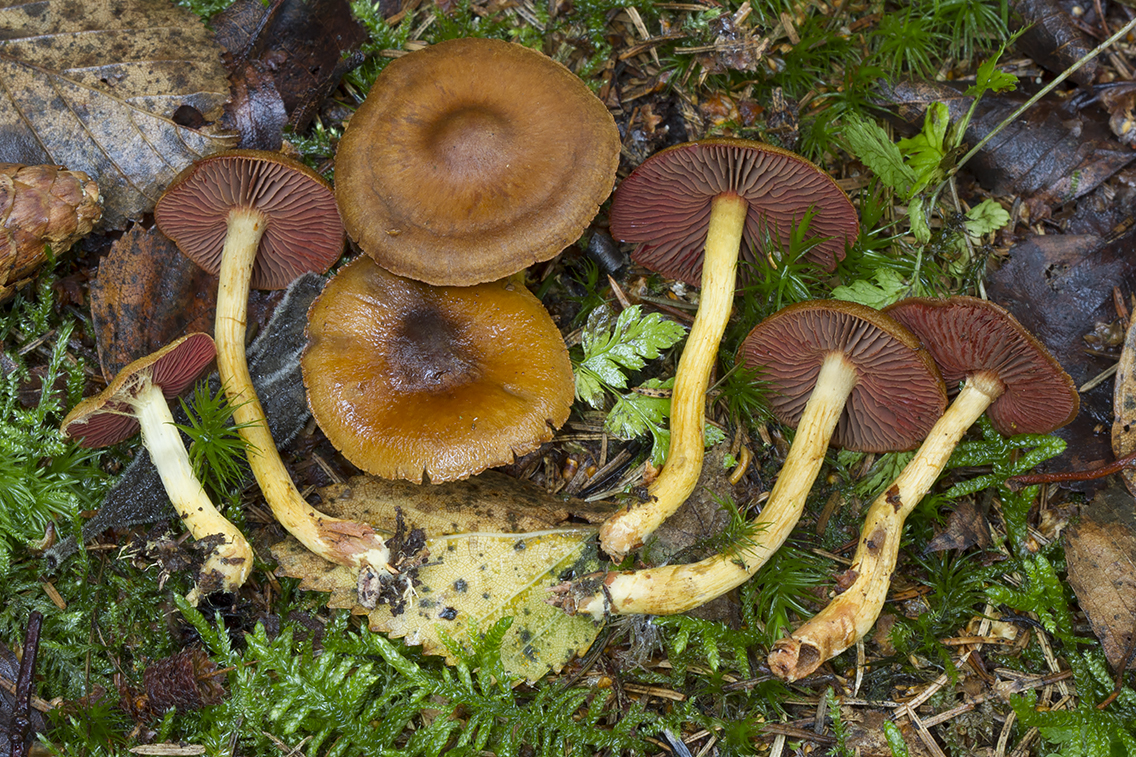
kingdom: Fungi
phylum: Basidiomycota
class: Agaricomycetes
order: Agaricales
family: Cortinariaceae
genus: Cortinarius
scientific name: Cortinarius
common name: cinnoberbladet slørhat
